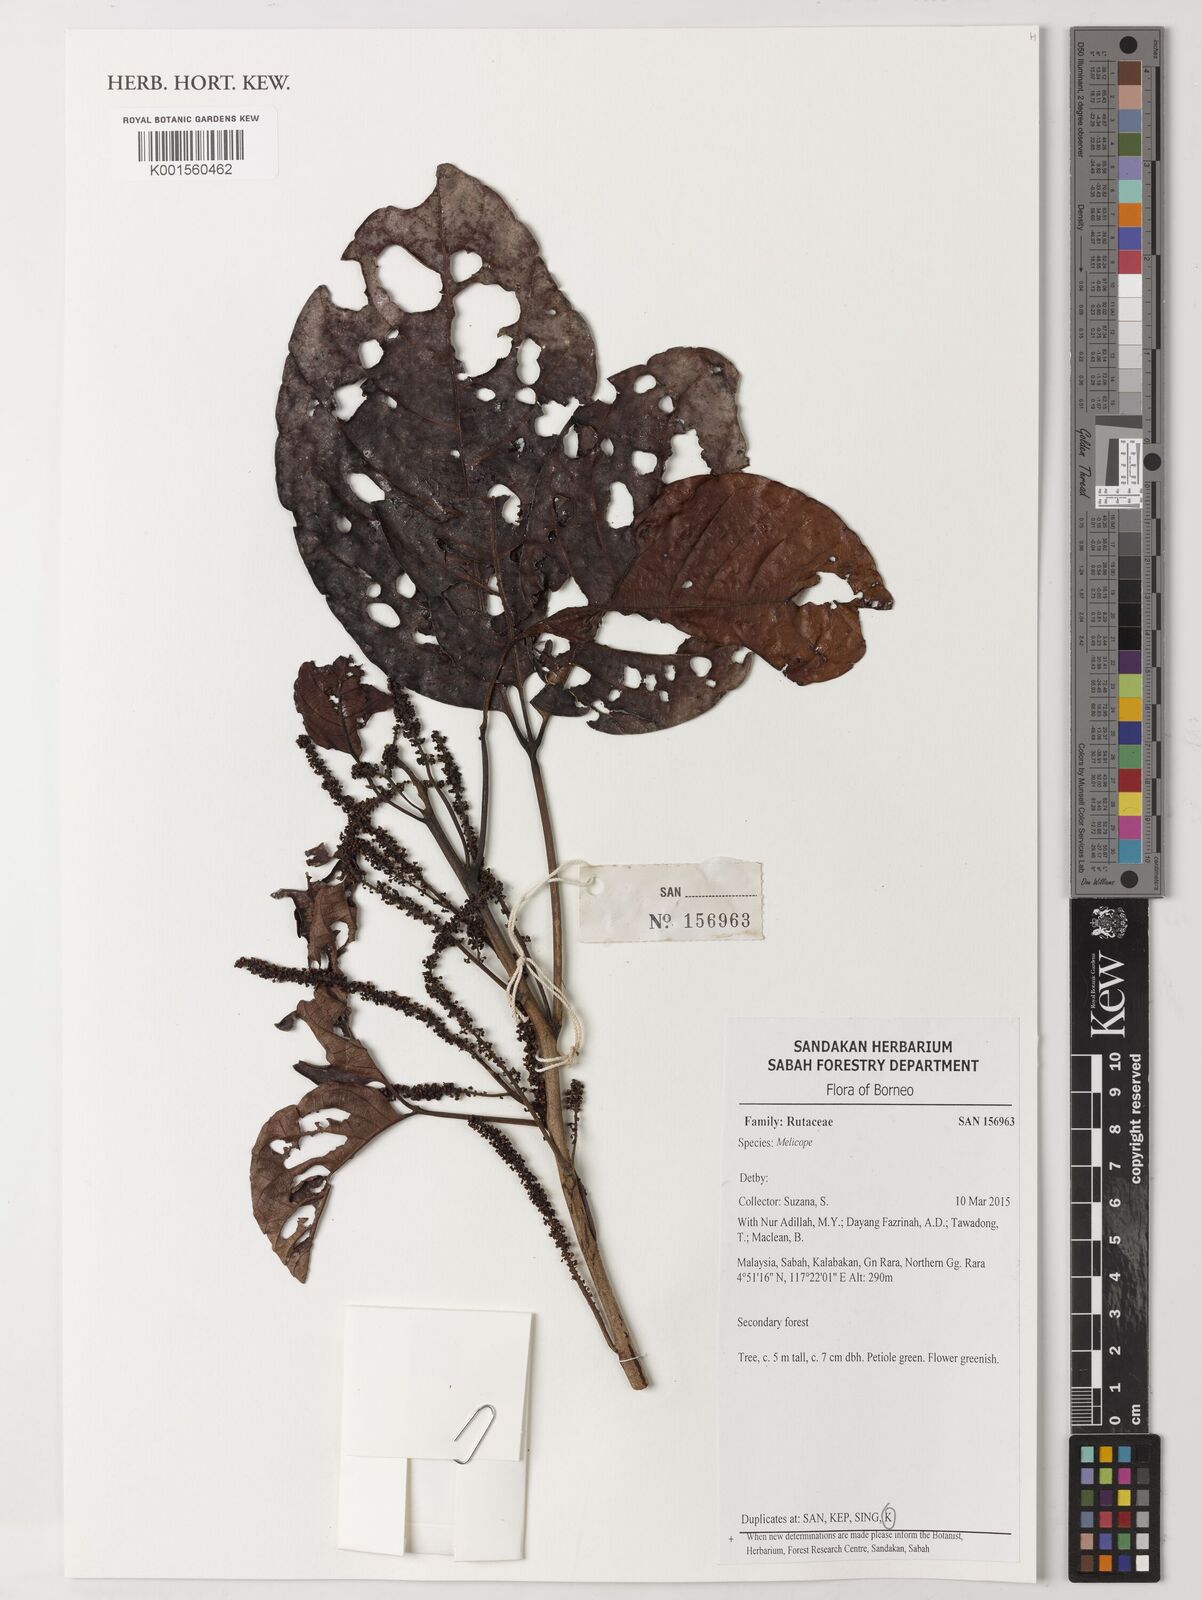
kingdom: Plantae
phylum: Tracheophyta
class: Magnoliopsida
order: Sapindales
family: Rutaceae
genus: Melicope
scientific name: Melicope
